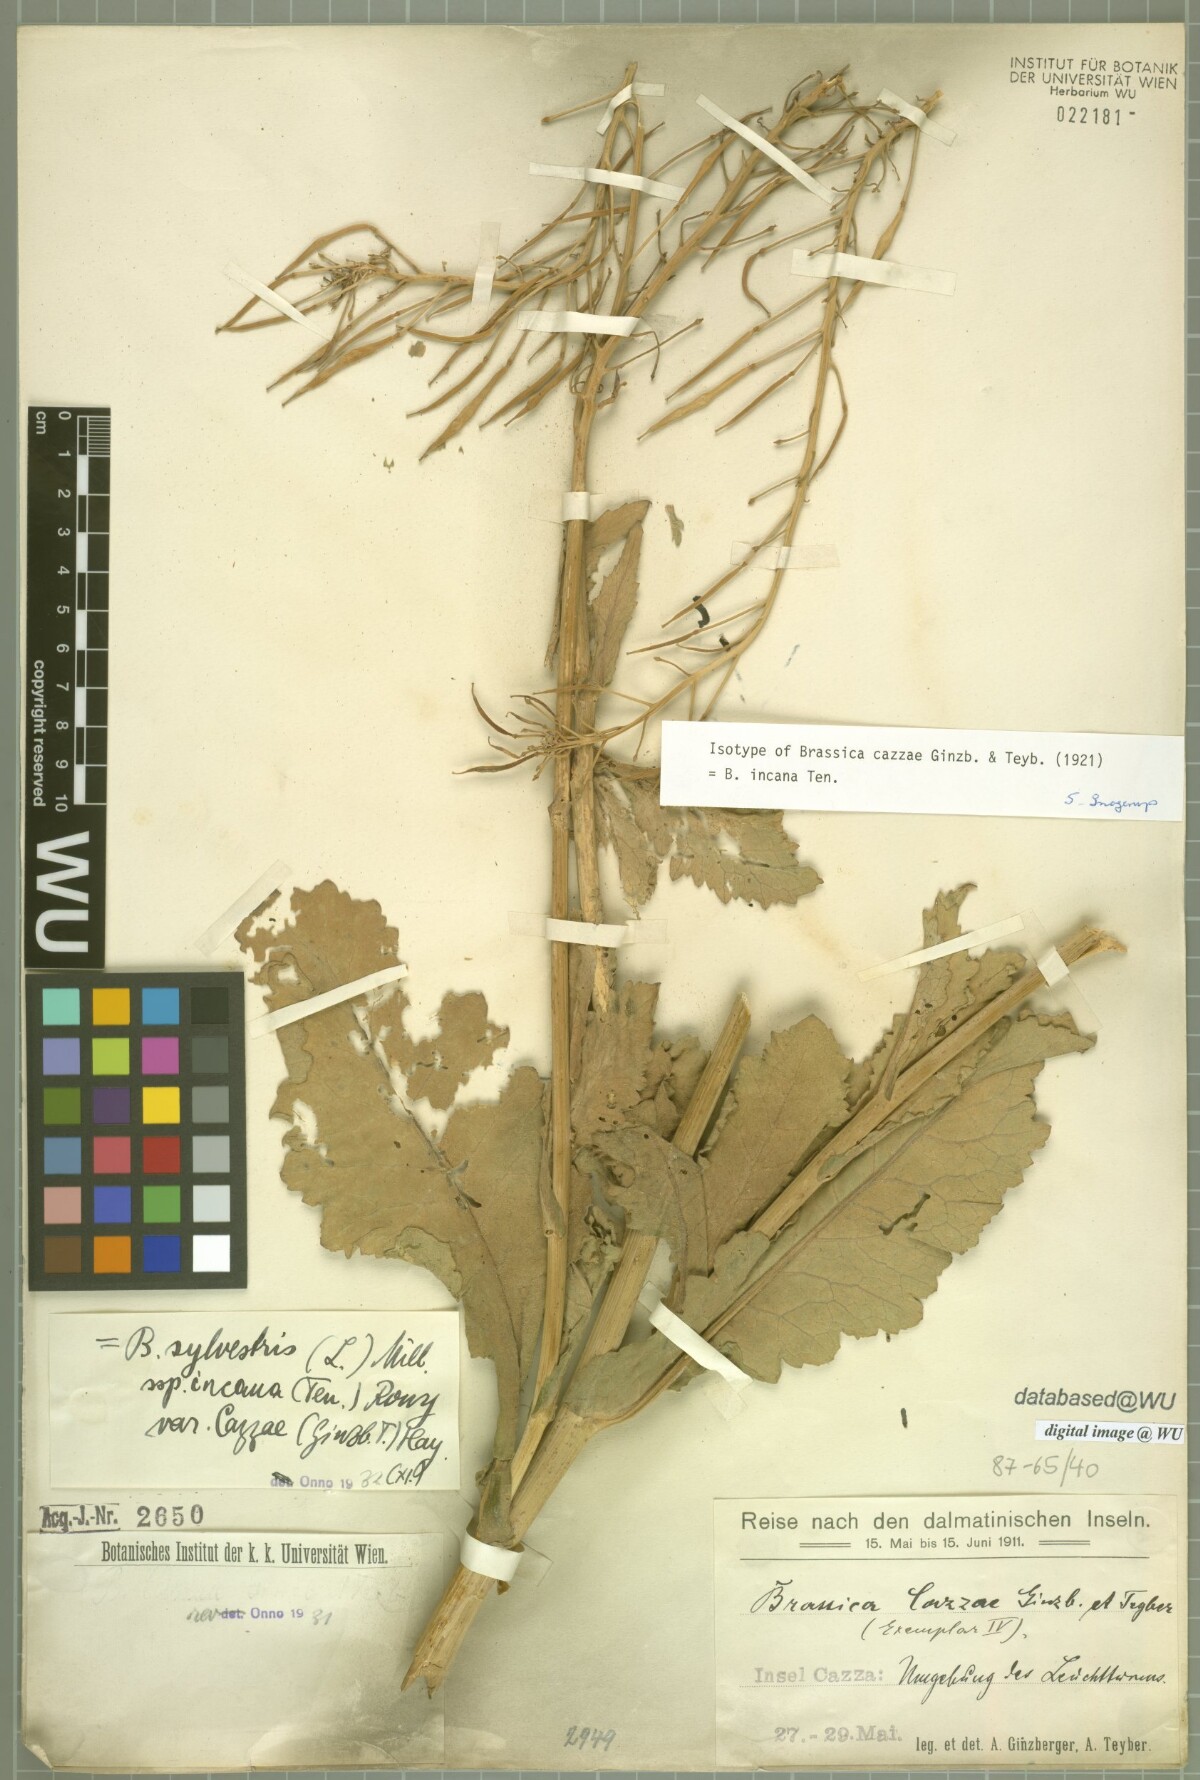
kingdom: Plantae
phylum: Tracheophyta
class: Magnoliopsida
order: Brassicales
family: Brassicaceae
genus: Brassica
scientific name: Brassica incana
